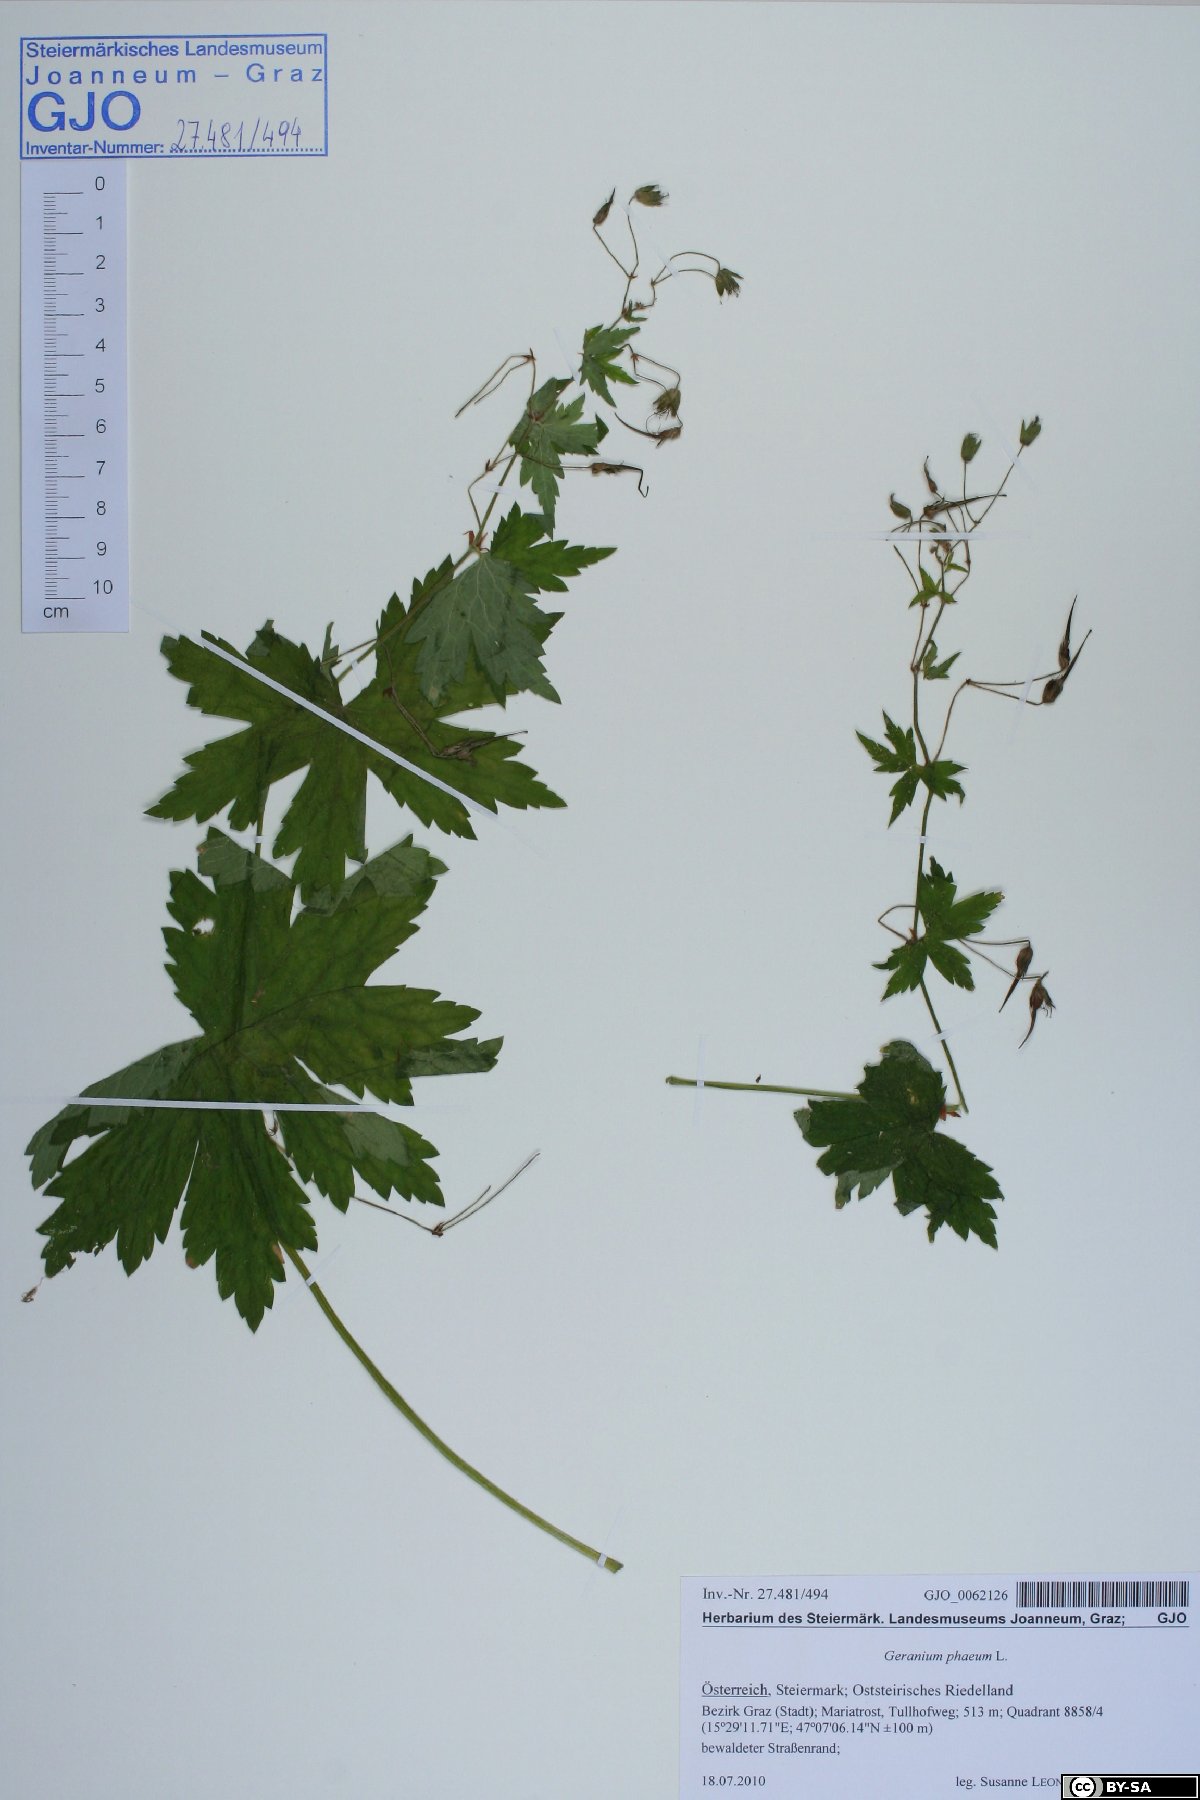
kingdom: Plantae
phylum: Tracheophyta
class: Magnoliopsida
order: Geraniales
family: Geraniaceae
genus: Geranium
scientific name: Geranium phaeum
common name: Dusky crane's-bill
